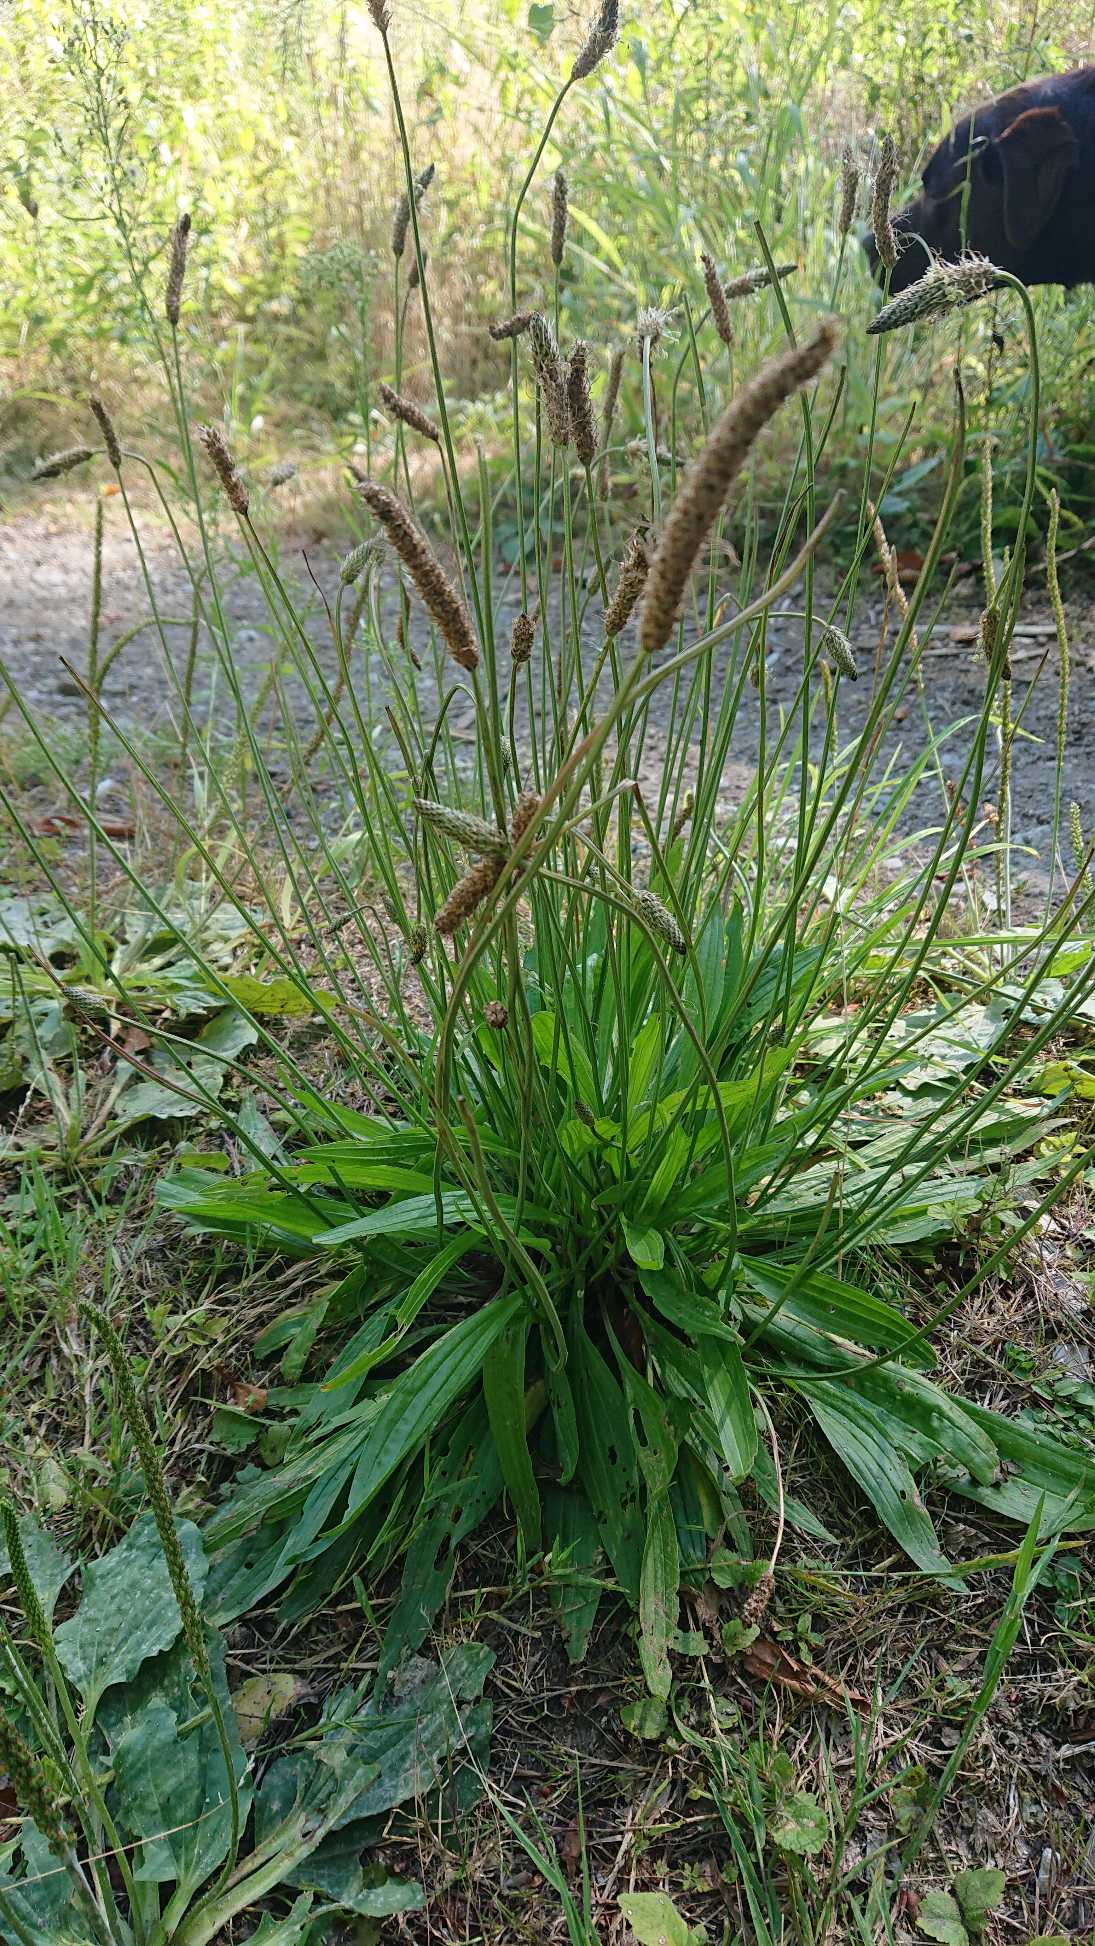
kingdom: Plantae
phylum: Tracheophyta
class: Magnoliopsida
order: Lamiales
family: Plantaginaceae
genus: Plantago
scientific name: Plantago lanceolata
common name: Lancet-vejbred
